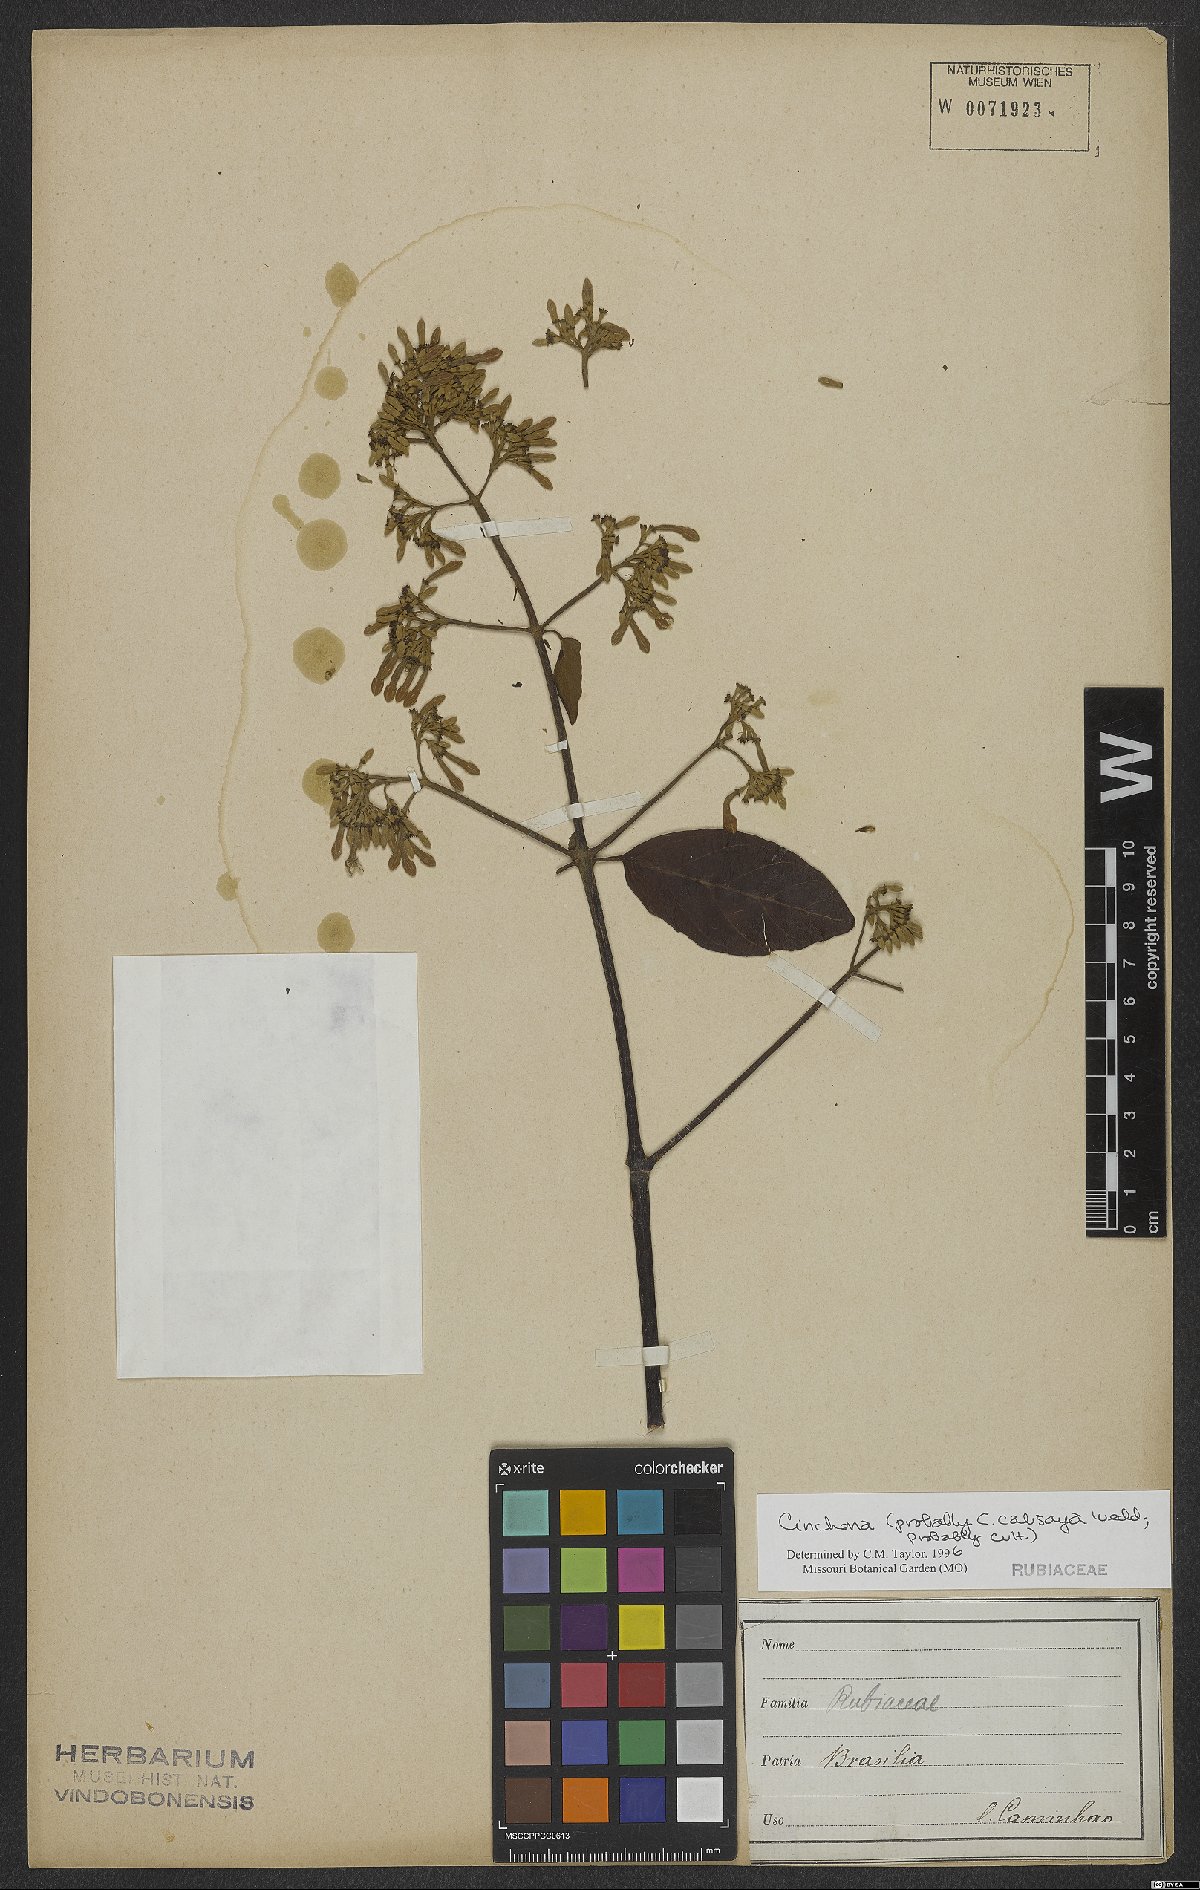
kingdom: Plantae
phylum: Tracheophyta
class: Magnoliopsida
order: Gentianales
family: Rubiaceae
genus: Cinchona
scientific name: Cinchona
